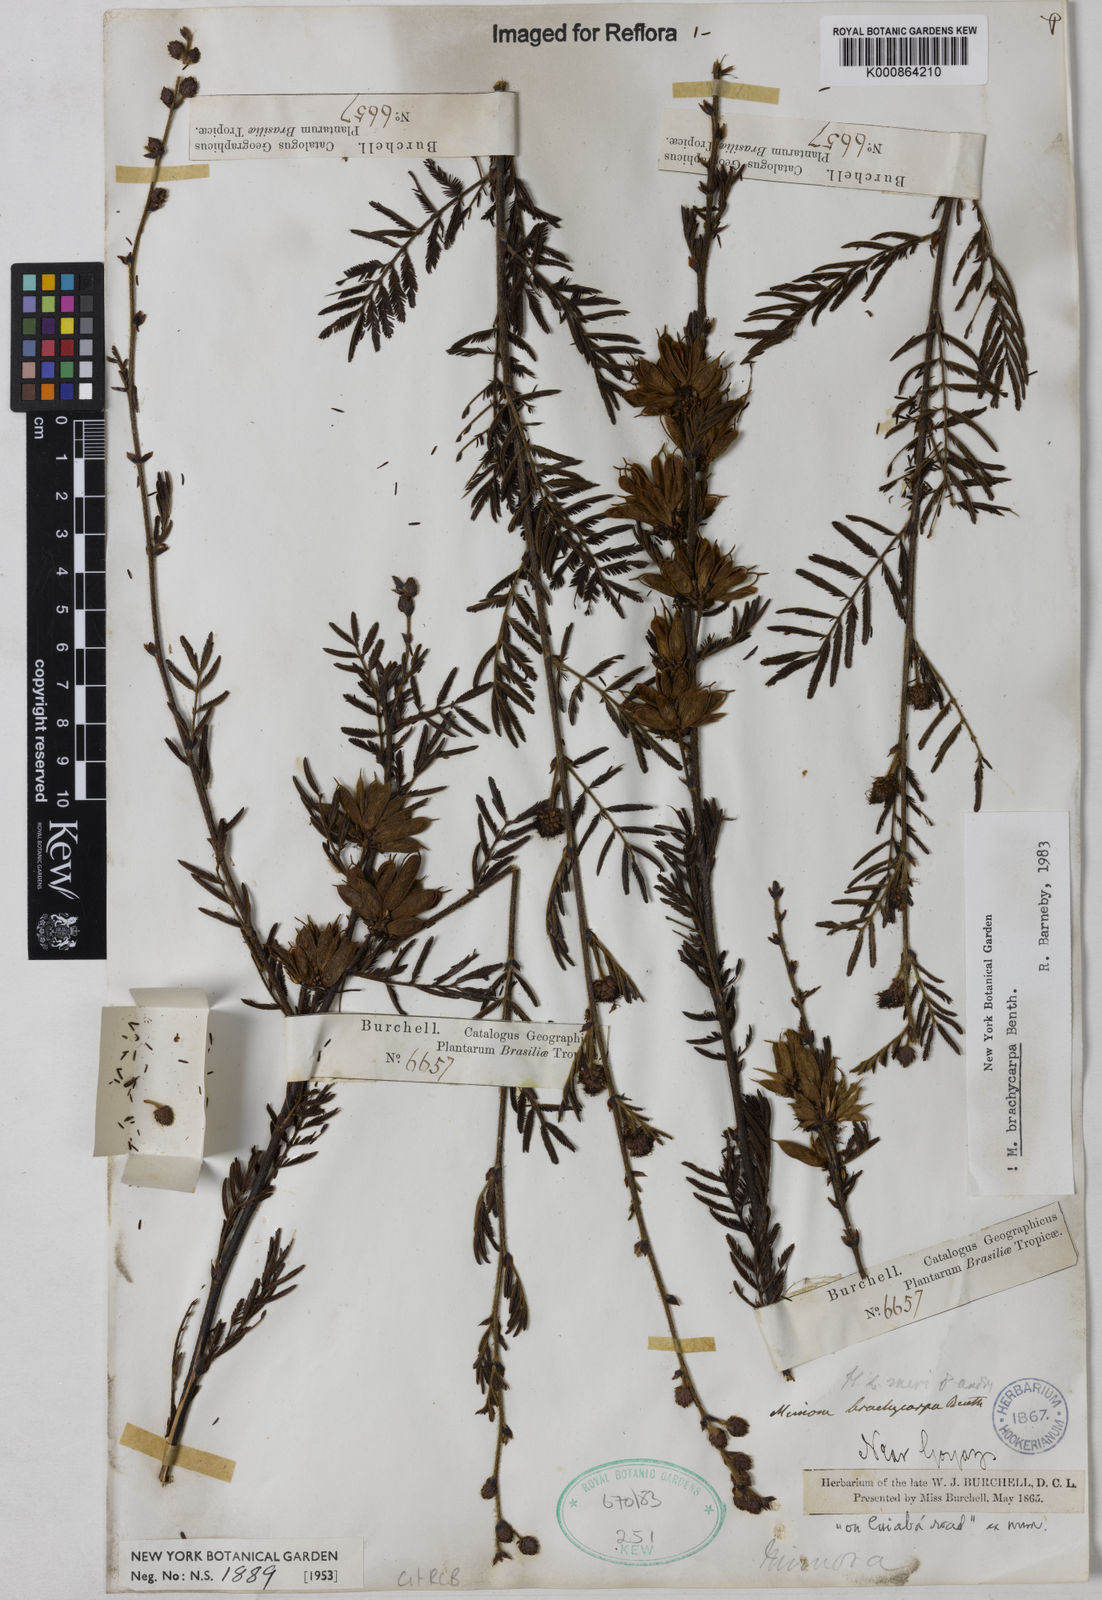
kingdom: Plantae
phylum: Tracheophyta
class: Magnoliopsida
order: Fabales
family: Fabaceae
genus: Mimosa
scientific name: Mimosa brachycarpa
